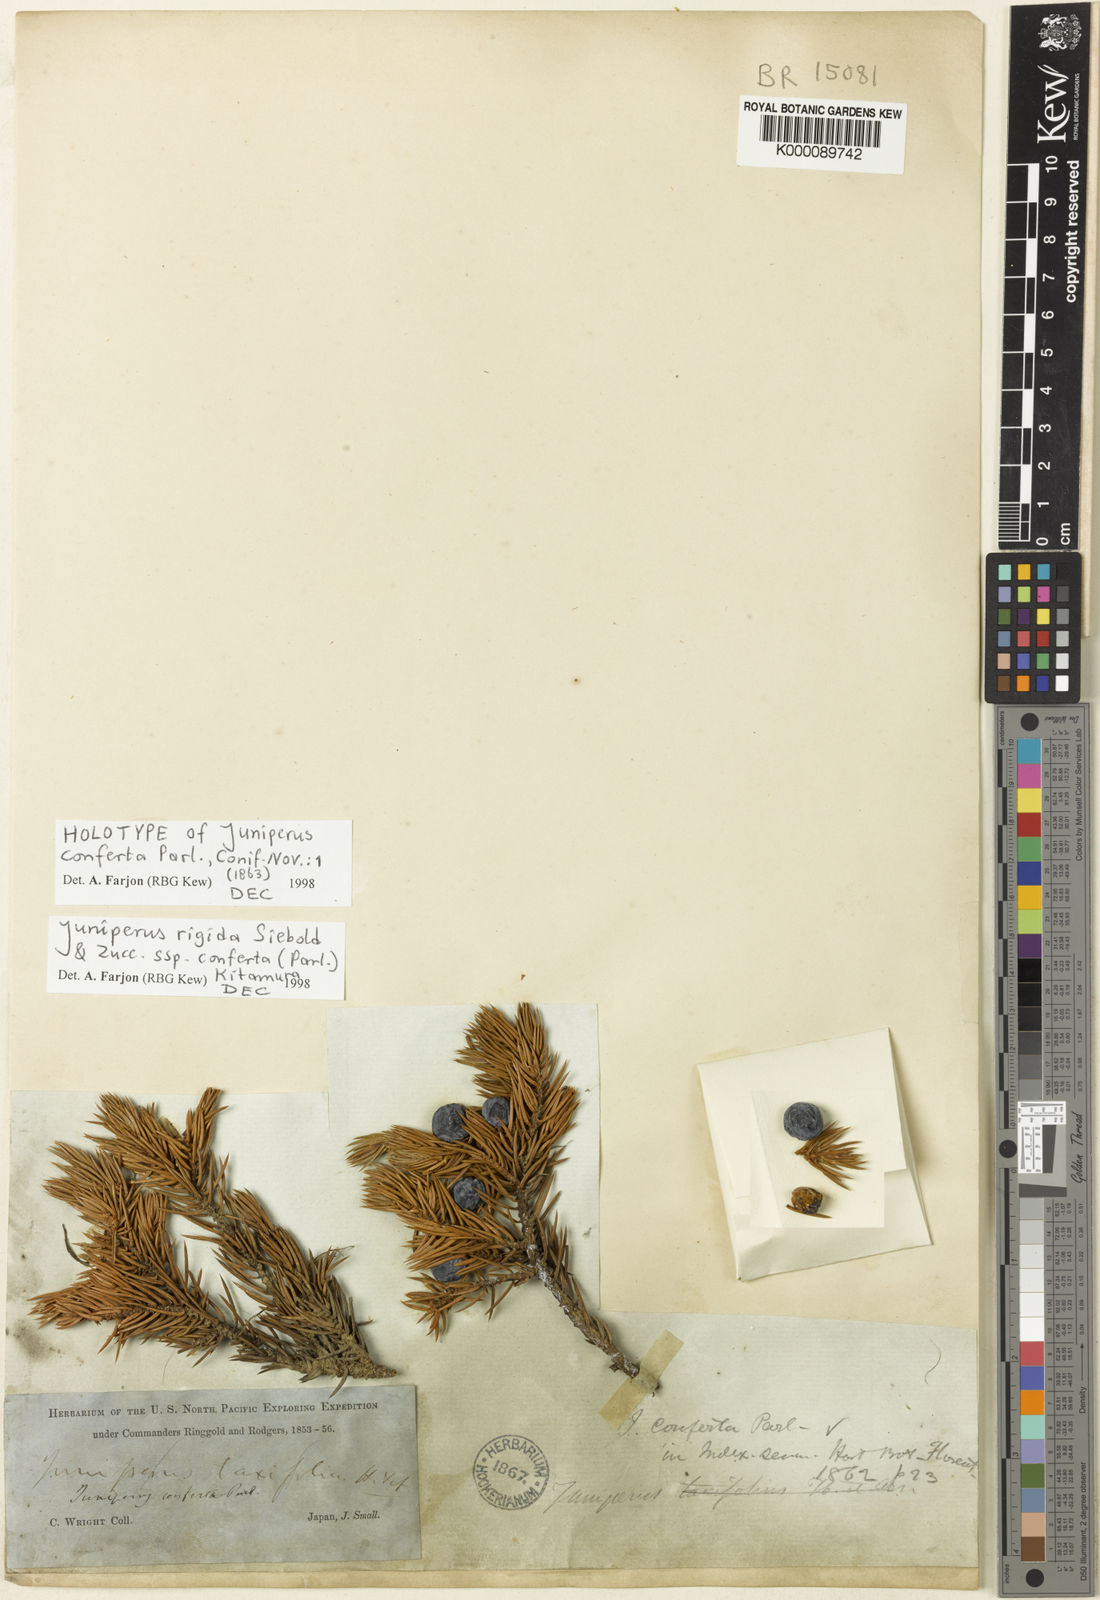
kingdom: Plantae
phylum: Tracheophyta
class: Pinopsida
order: Pinales
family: Cupressaceae
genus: Juniperus
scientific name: Juniperus rigida
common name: Needle juniper
